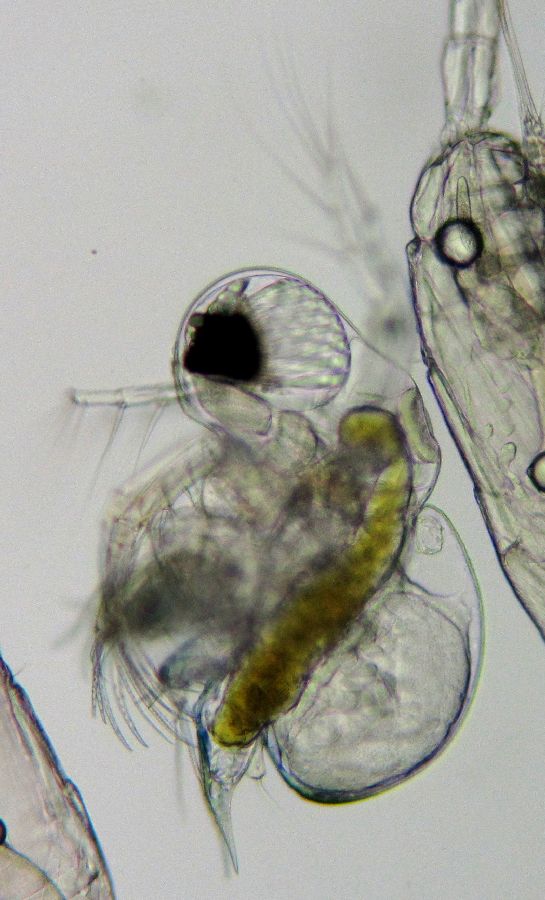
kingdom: Animalia
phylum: Arthropoda
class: Branchiopoda
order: Diplostraca
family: Podonidae
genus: Podon
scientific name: Podon leuckarti
